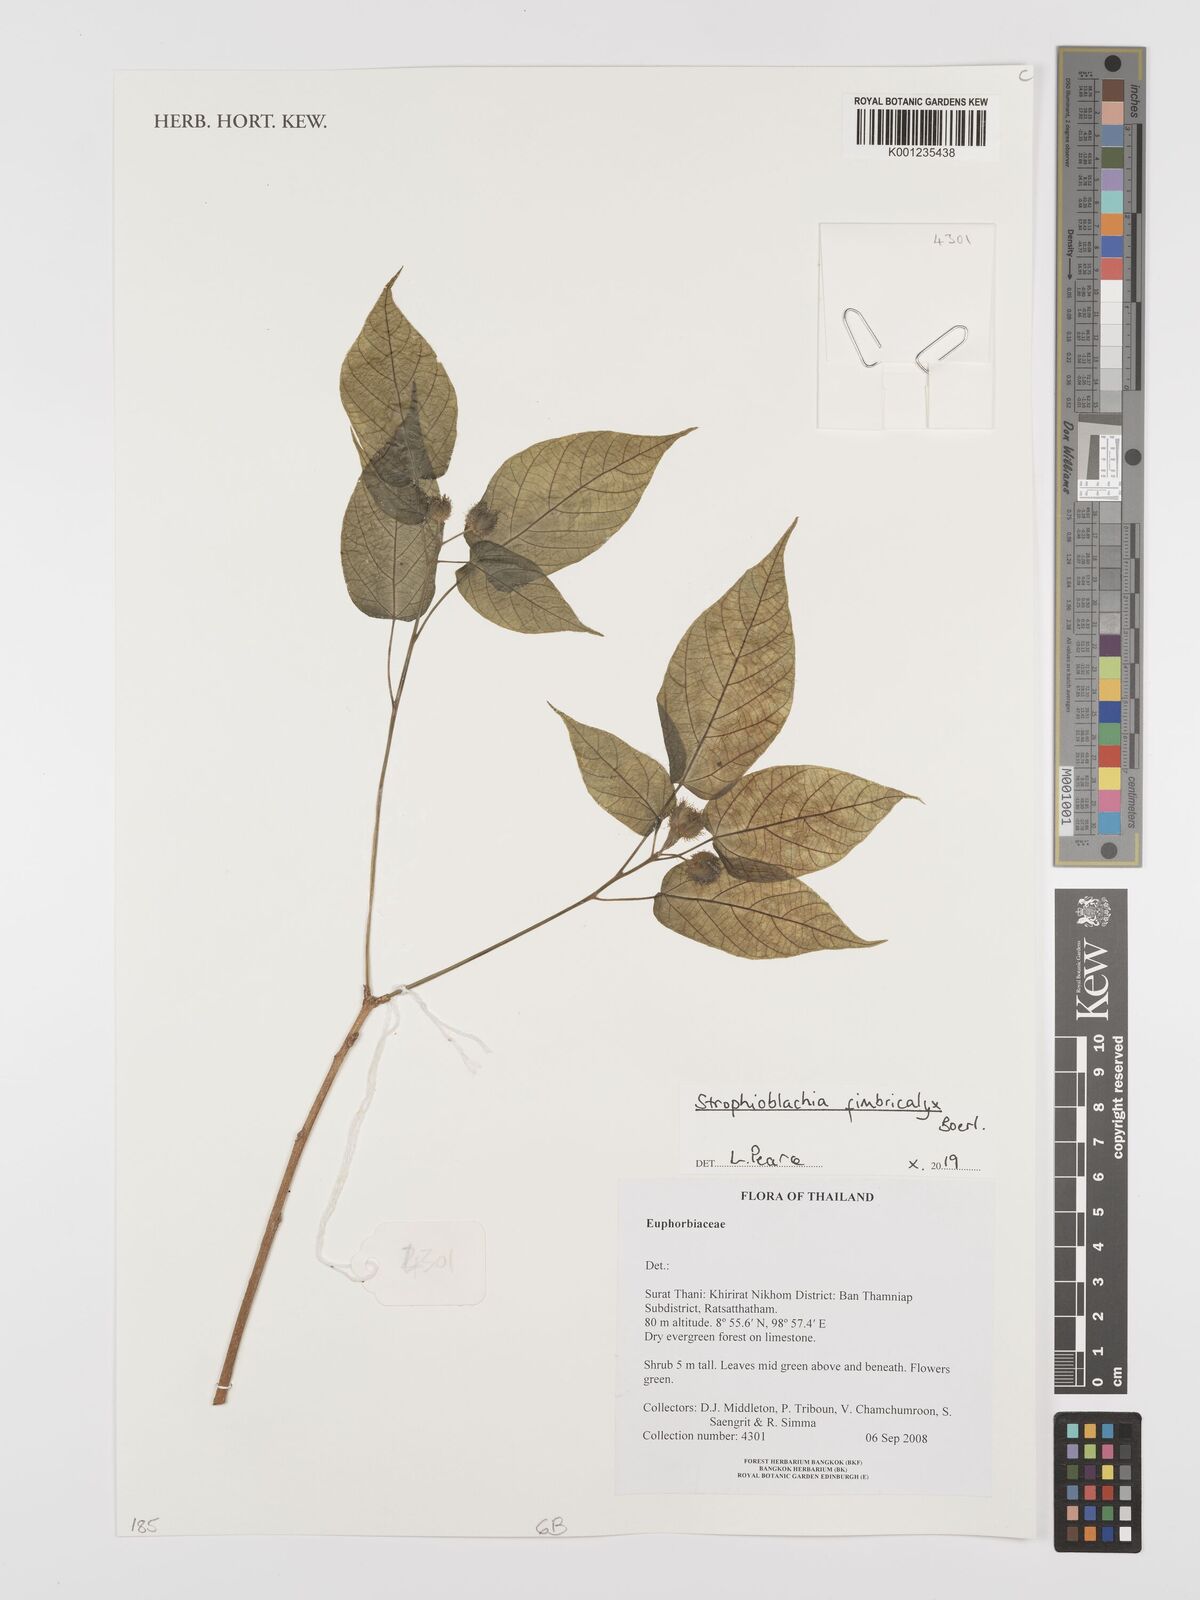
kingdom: Plantae
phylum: Tracheophyta
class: Magnoliopsida
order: Malpighiales
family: Euphorbiaceae
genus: Strophioblachia
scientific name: Strophioblachia fimbricalyx
